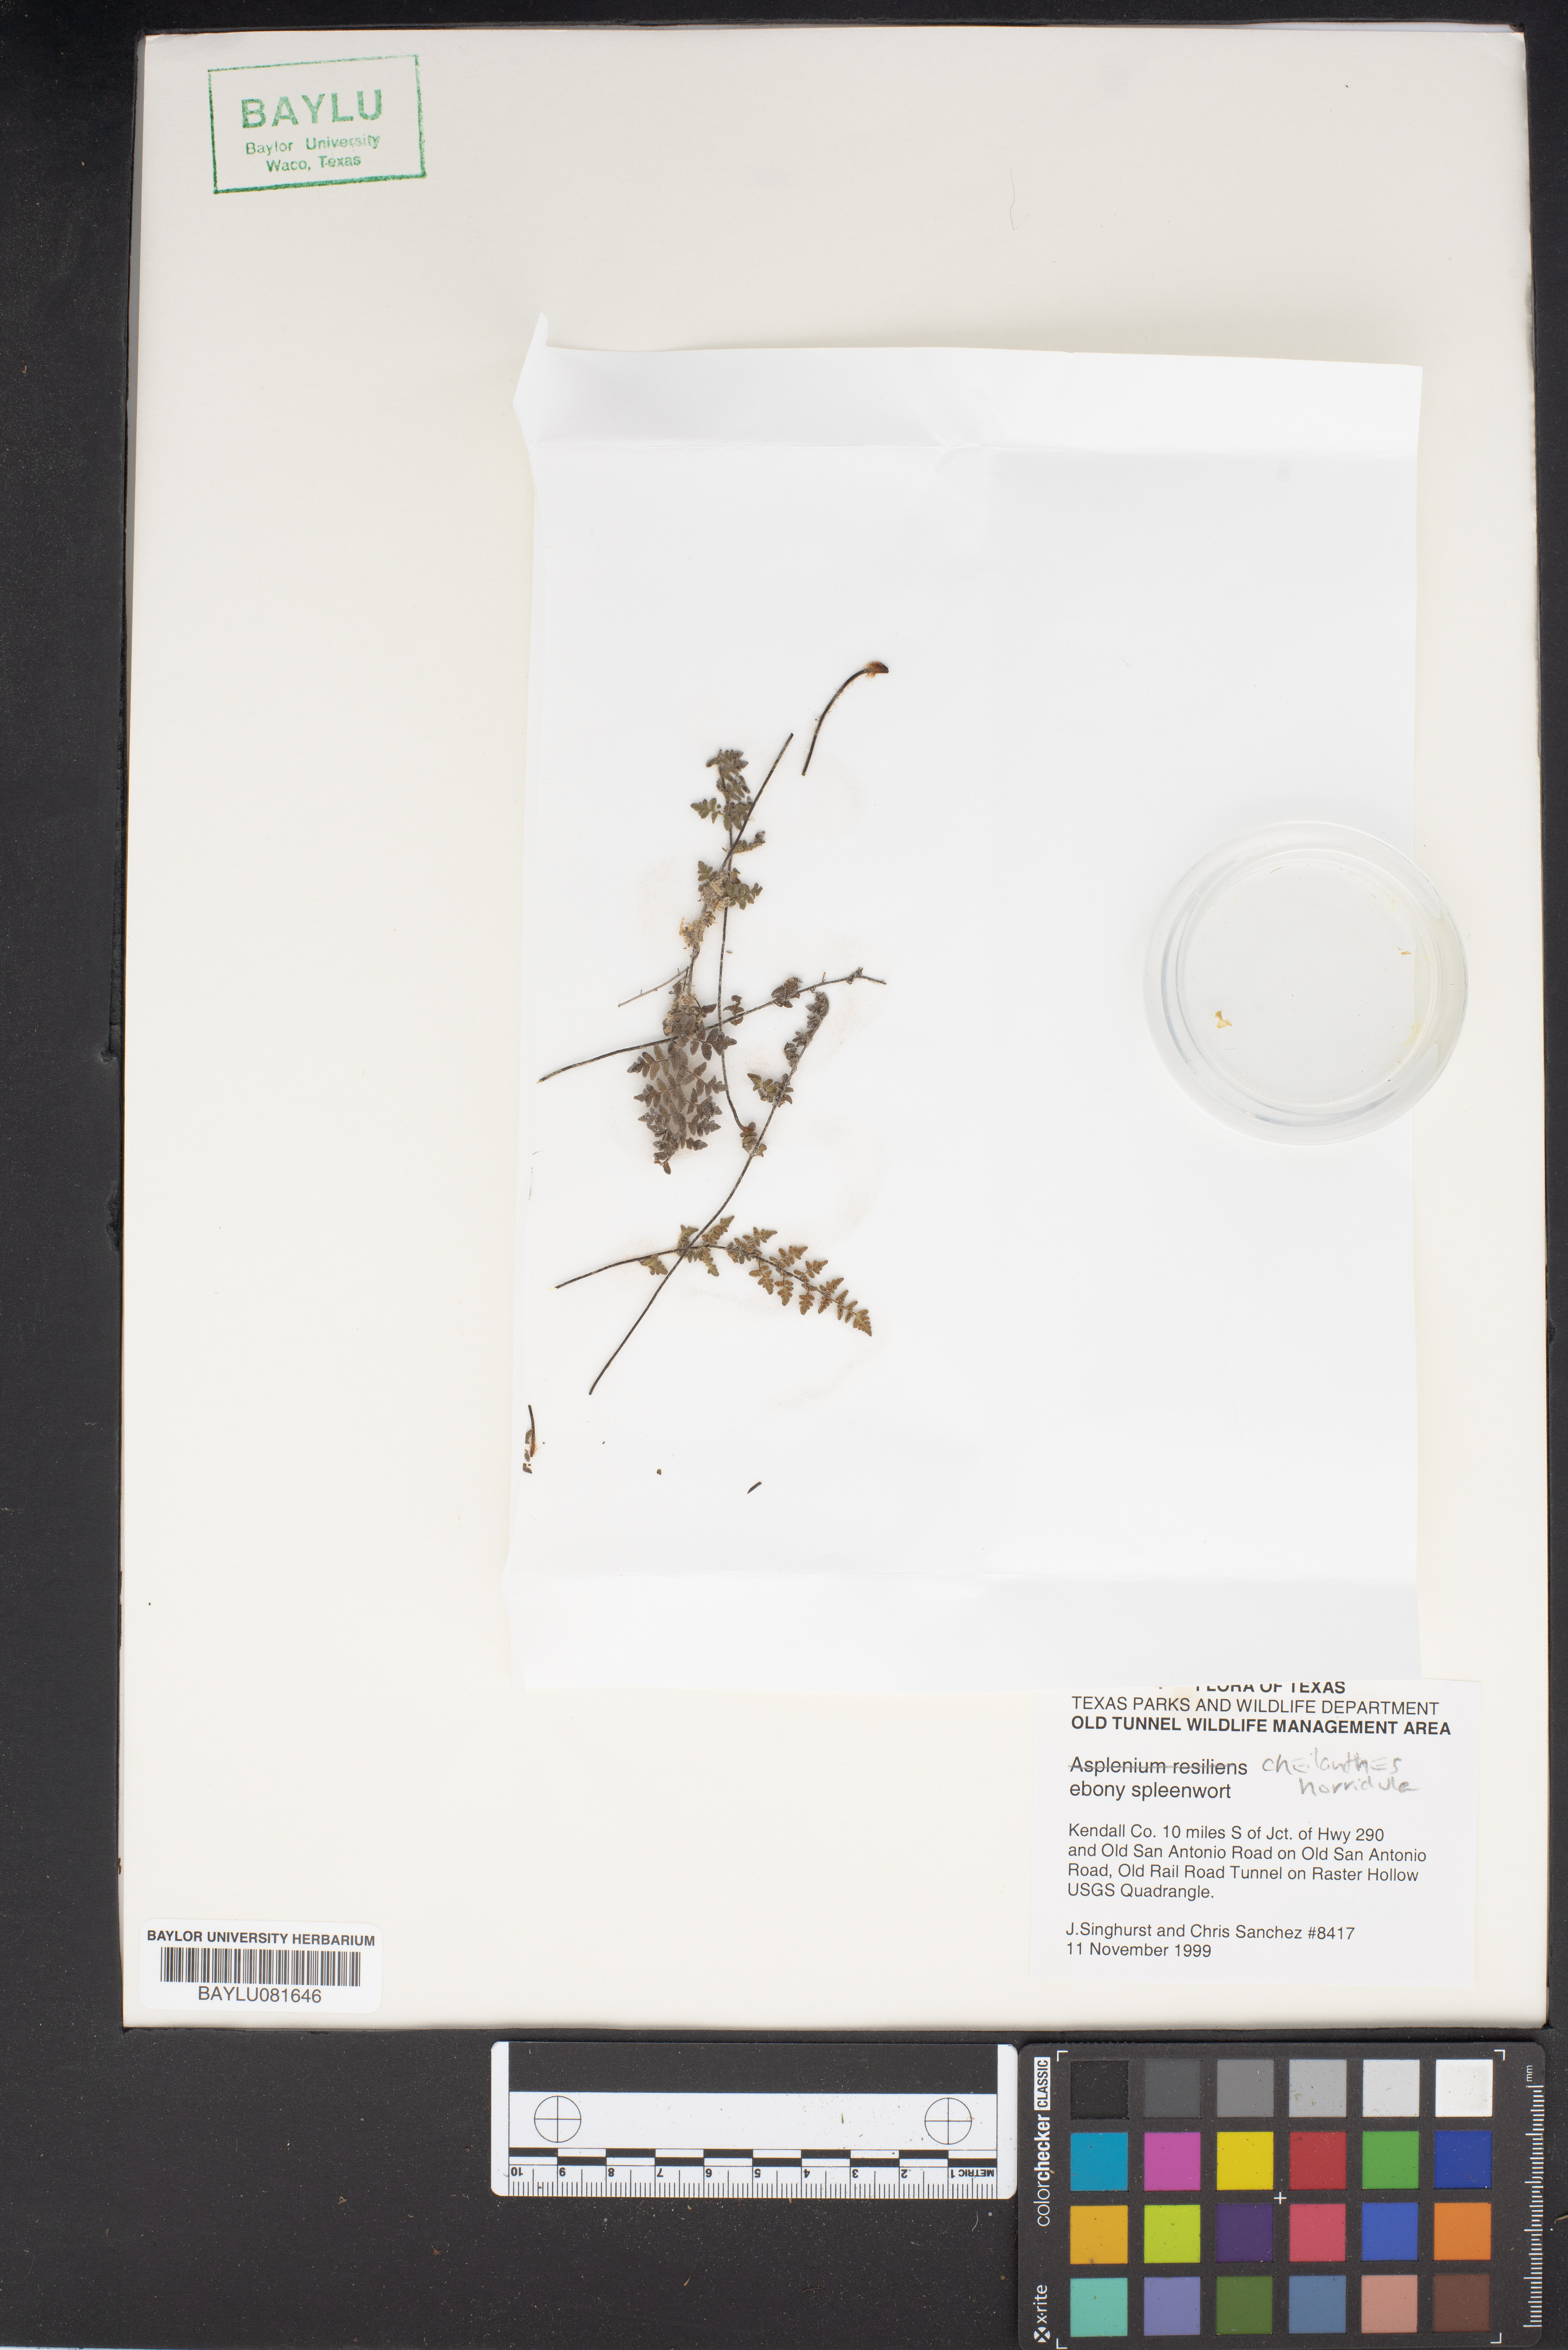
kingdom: Plantae
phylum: Tracheophyta
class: Polypodiopsida
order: Polypodiales
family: Pteridaceae
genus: Myriopteris
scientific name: Myriopteris scabra
